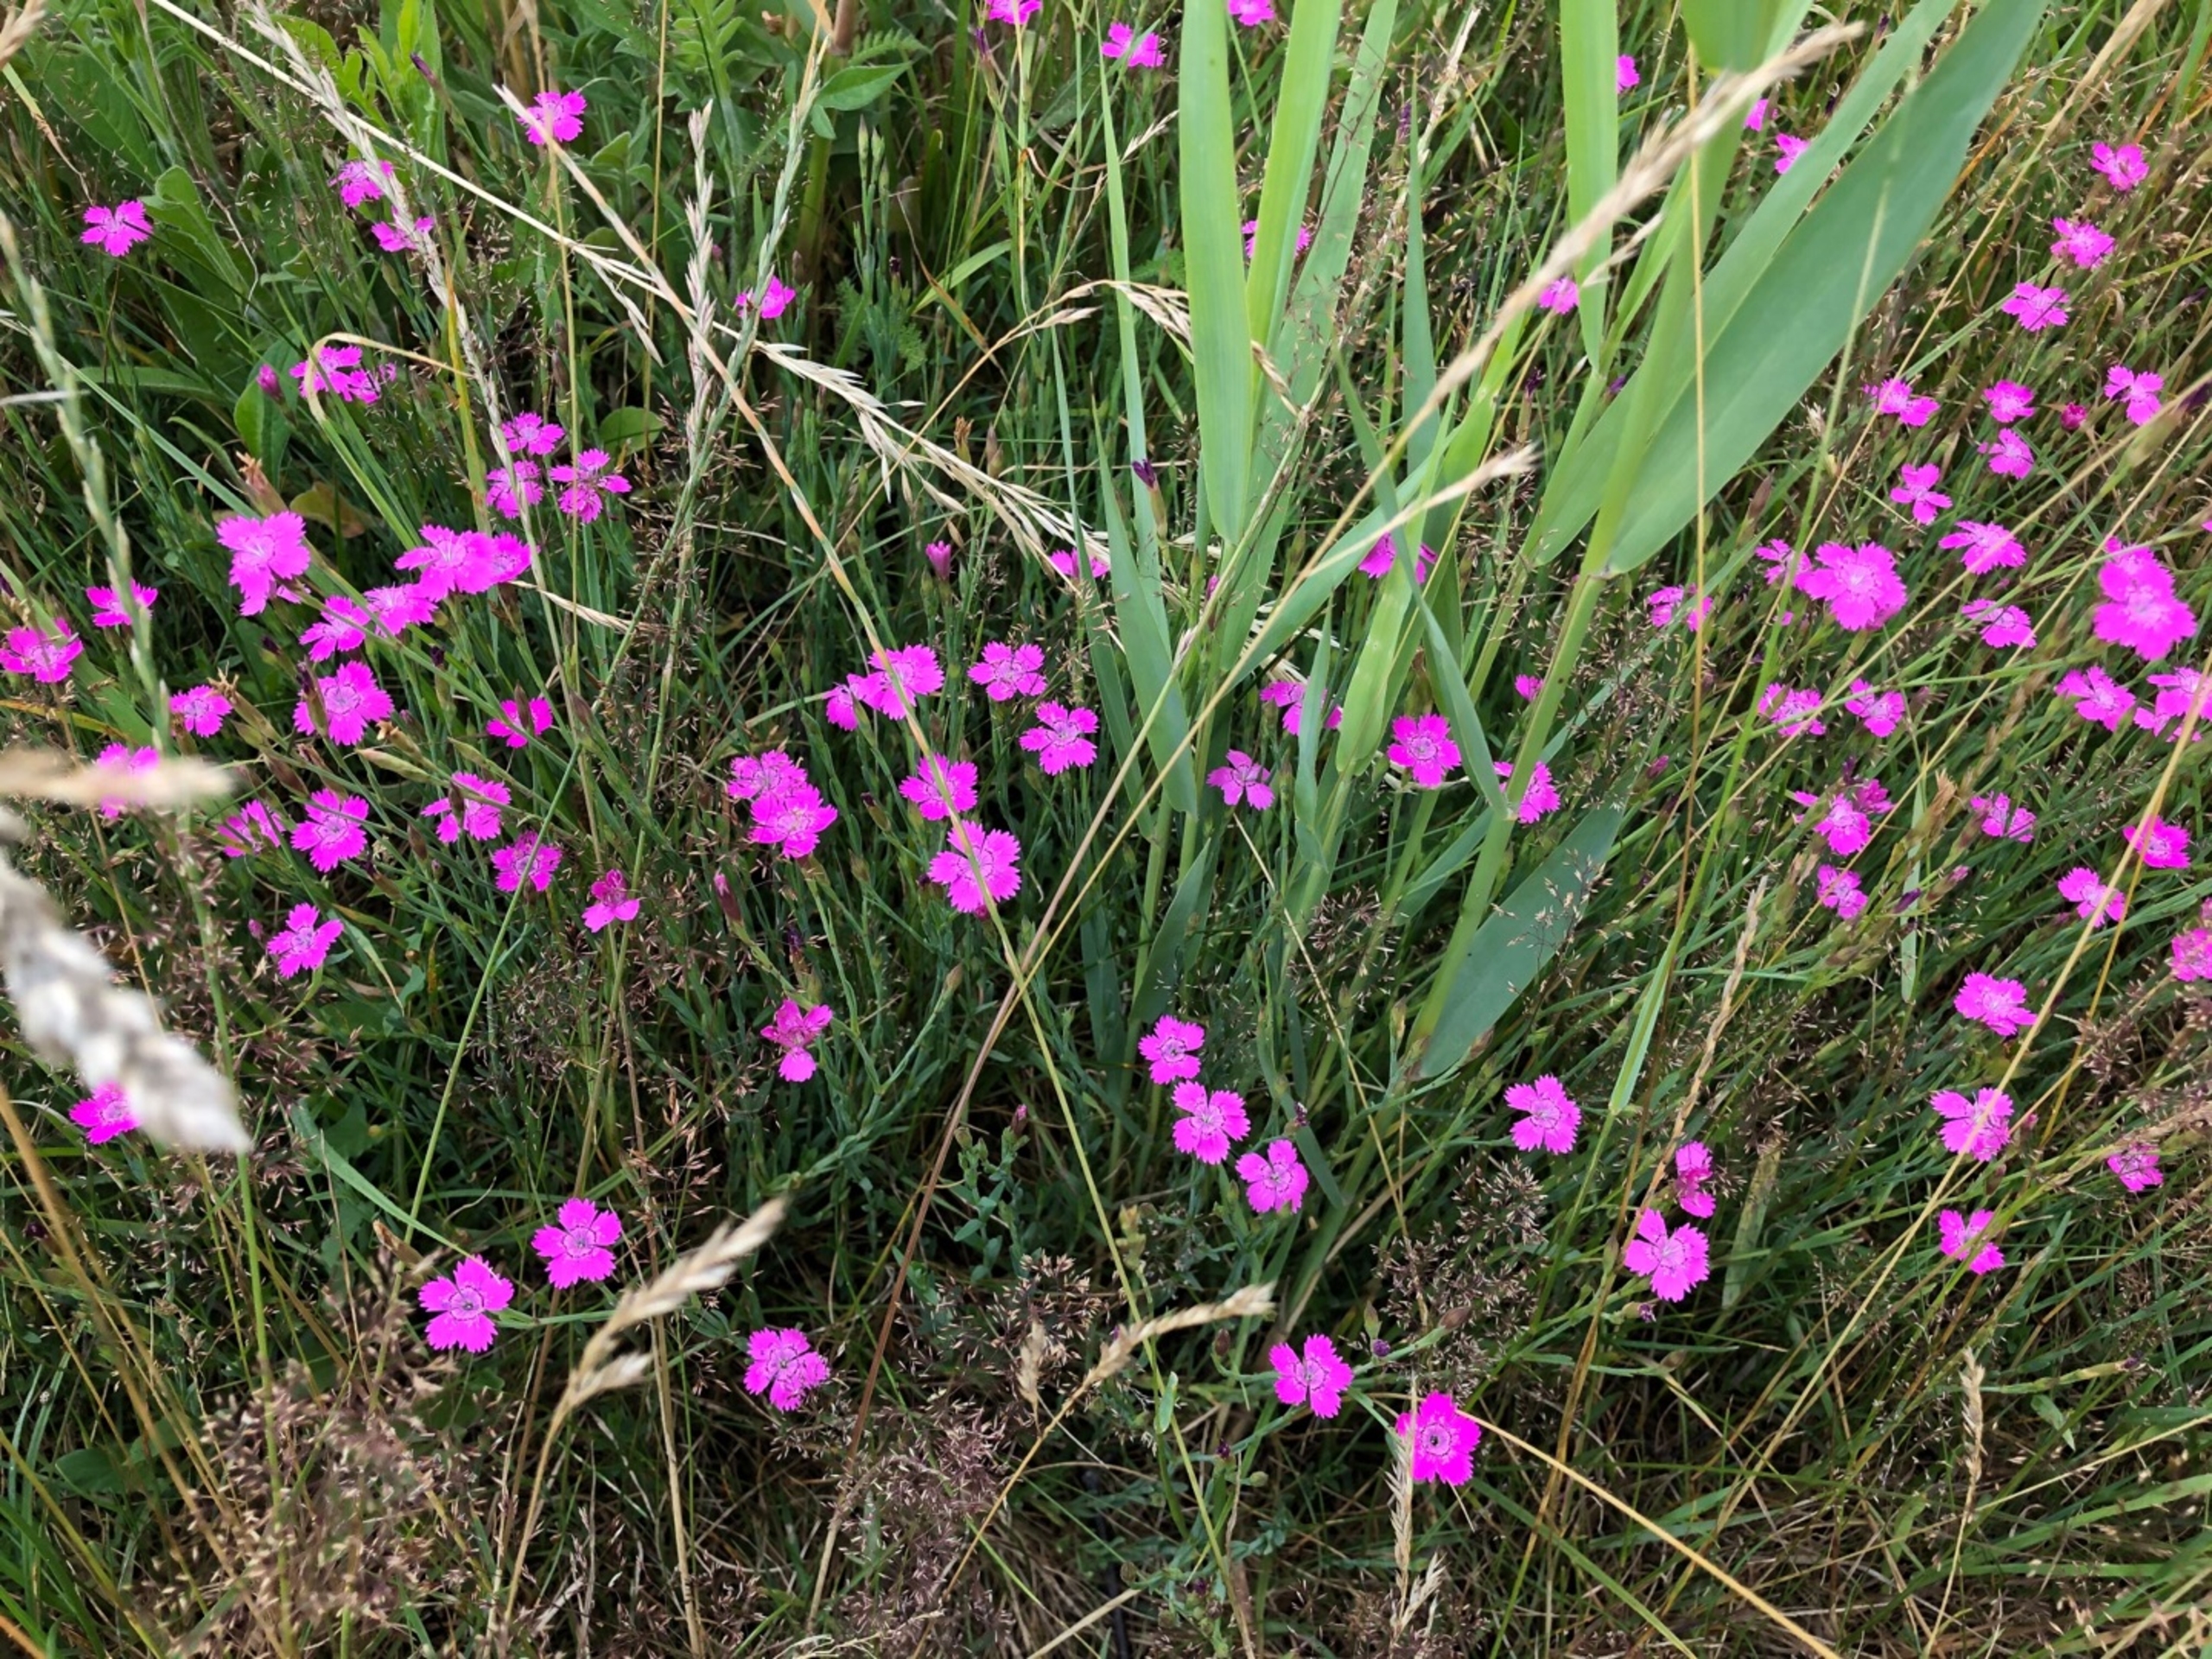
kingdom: Plantae
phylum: Tracheophyta
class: Magnoliopsida
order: Caryophyllales
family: Caryophyllaceae
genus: Dianthus
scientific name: Dianthus deltoides
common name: Bakke-nellike
